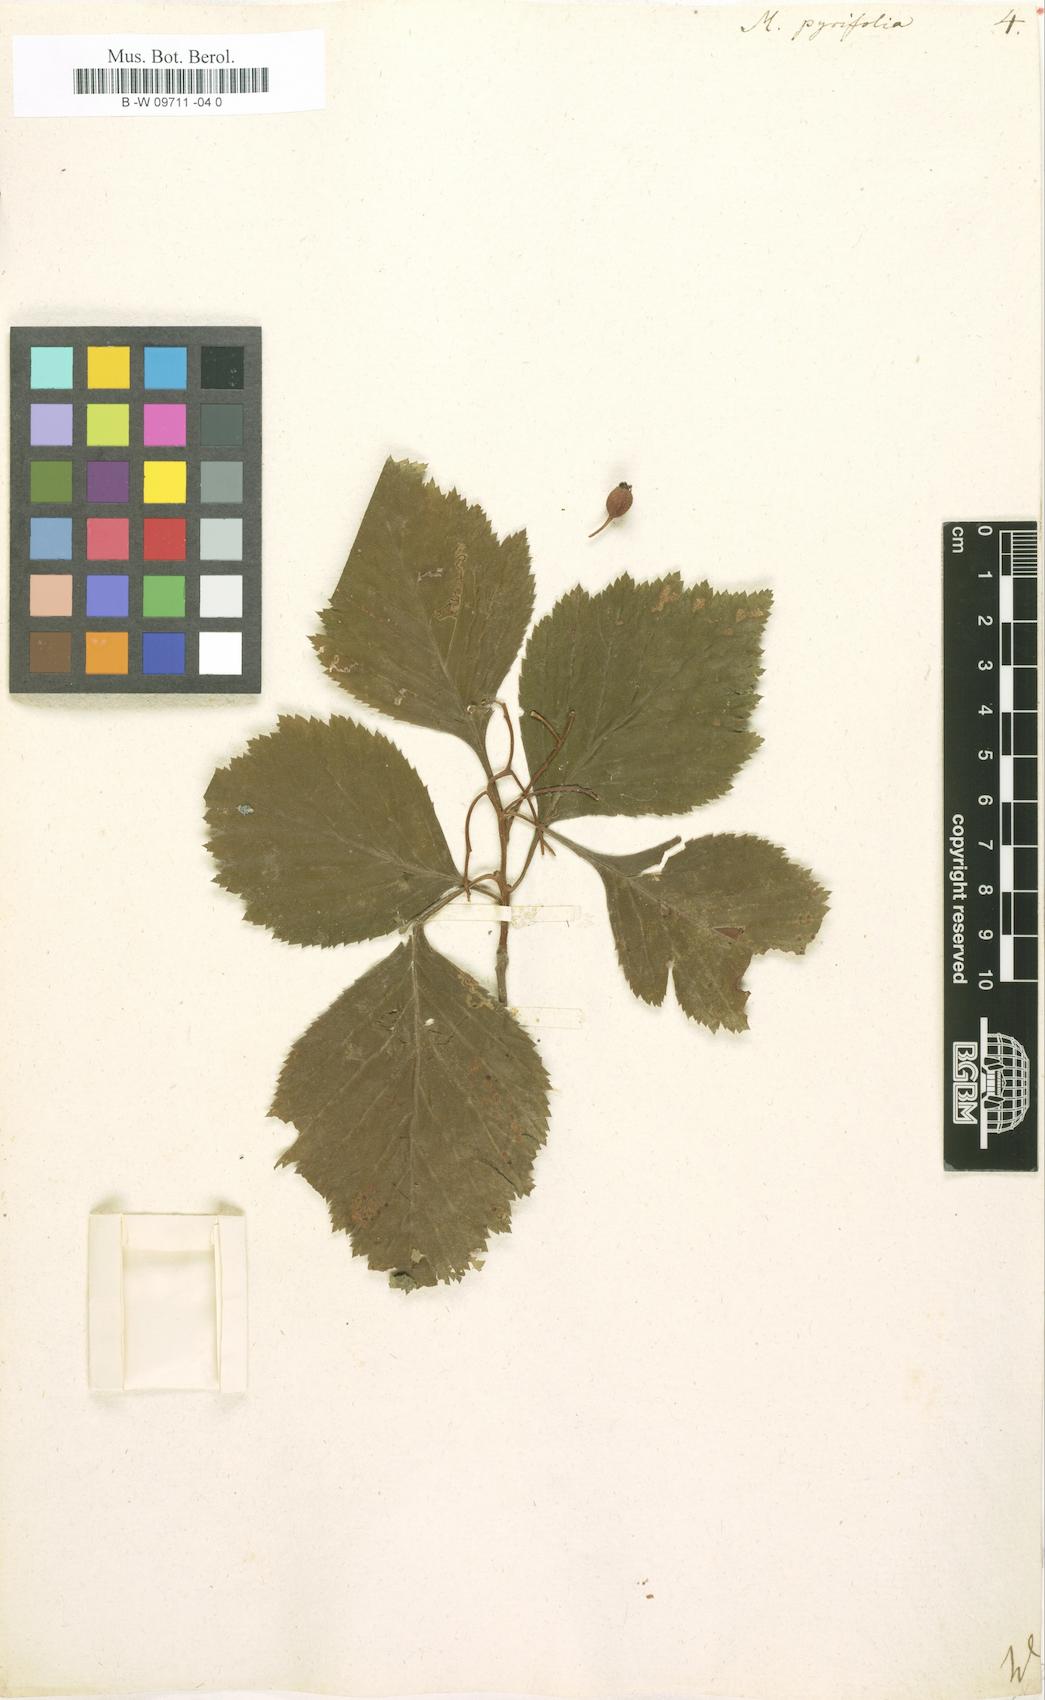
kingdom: Plantae
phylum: Tracheophyta
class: Magnoliopsida
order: Rosales
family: Rosaceae
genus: Crataegus
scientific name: Crataegus
